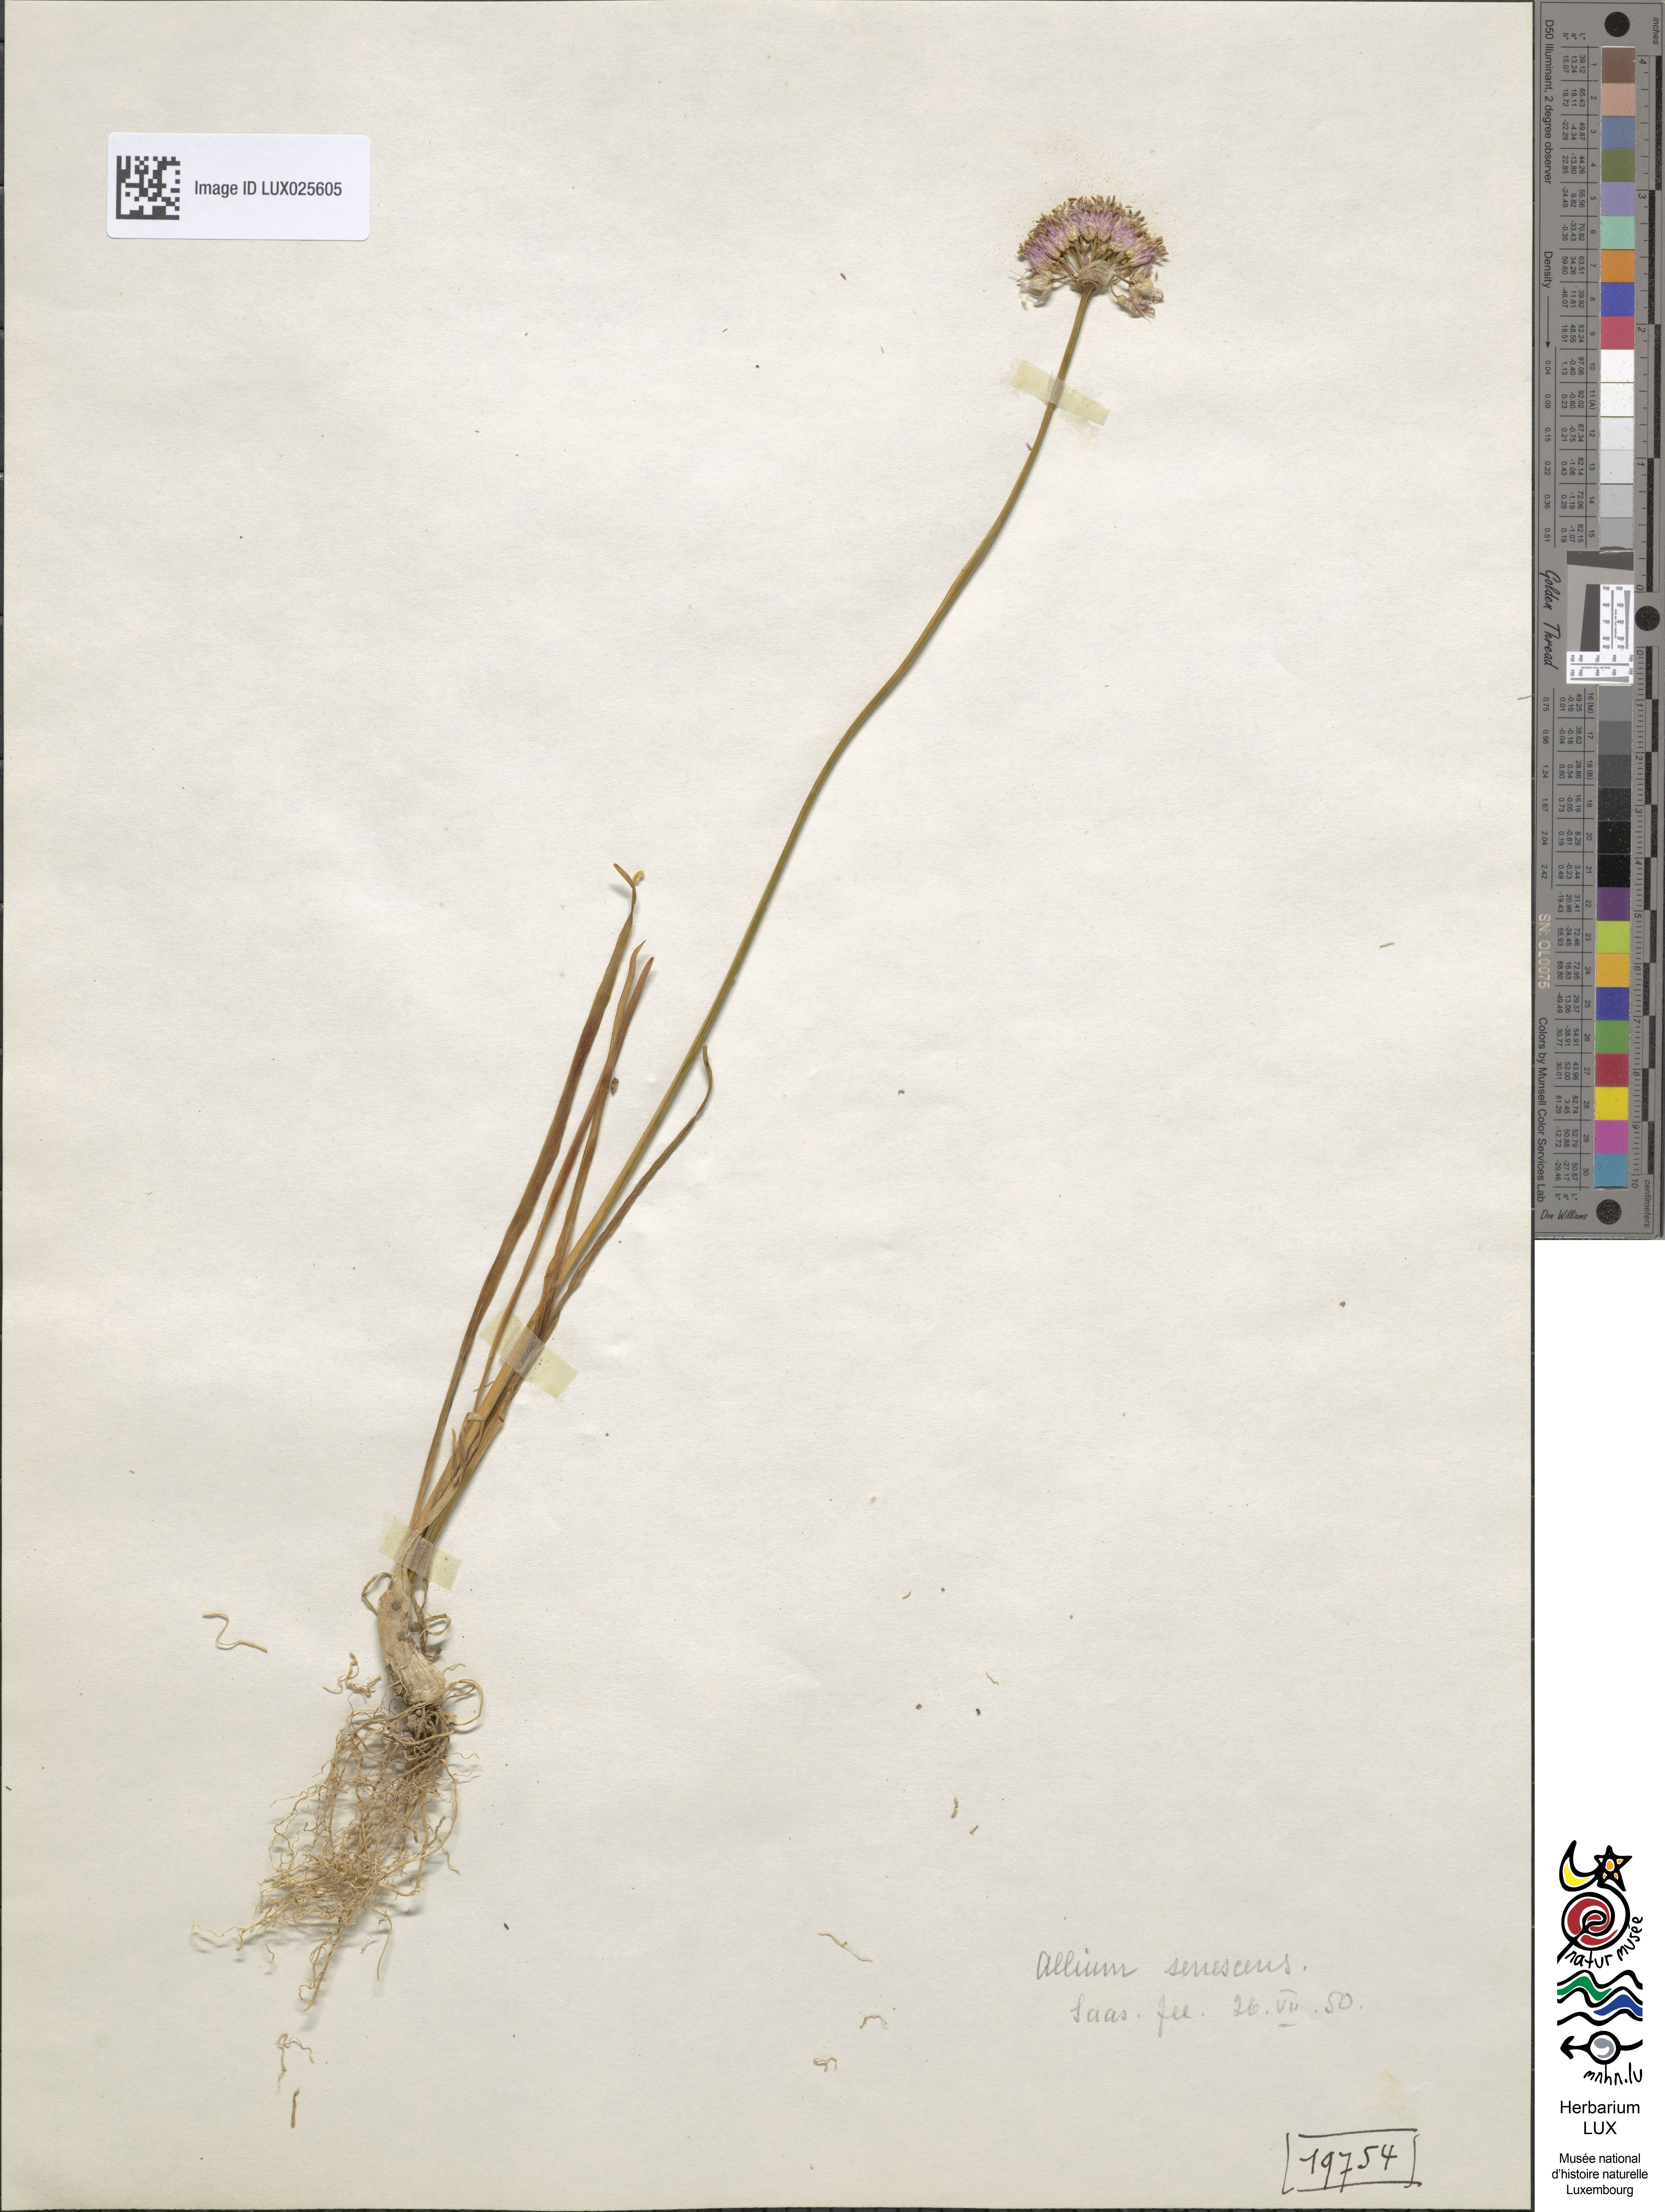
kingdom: Plantae
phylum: Tracheophyta
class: Liliopsida
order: Asparagales
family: Amaryllidaceae
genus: Allium
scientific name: Allium senescens
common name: German garlic
